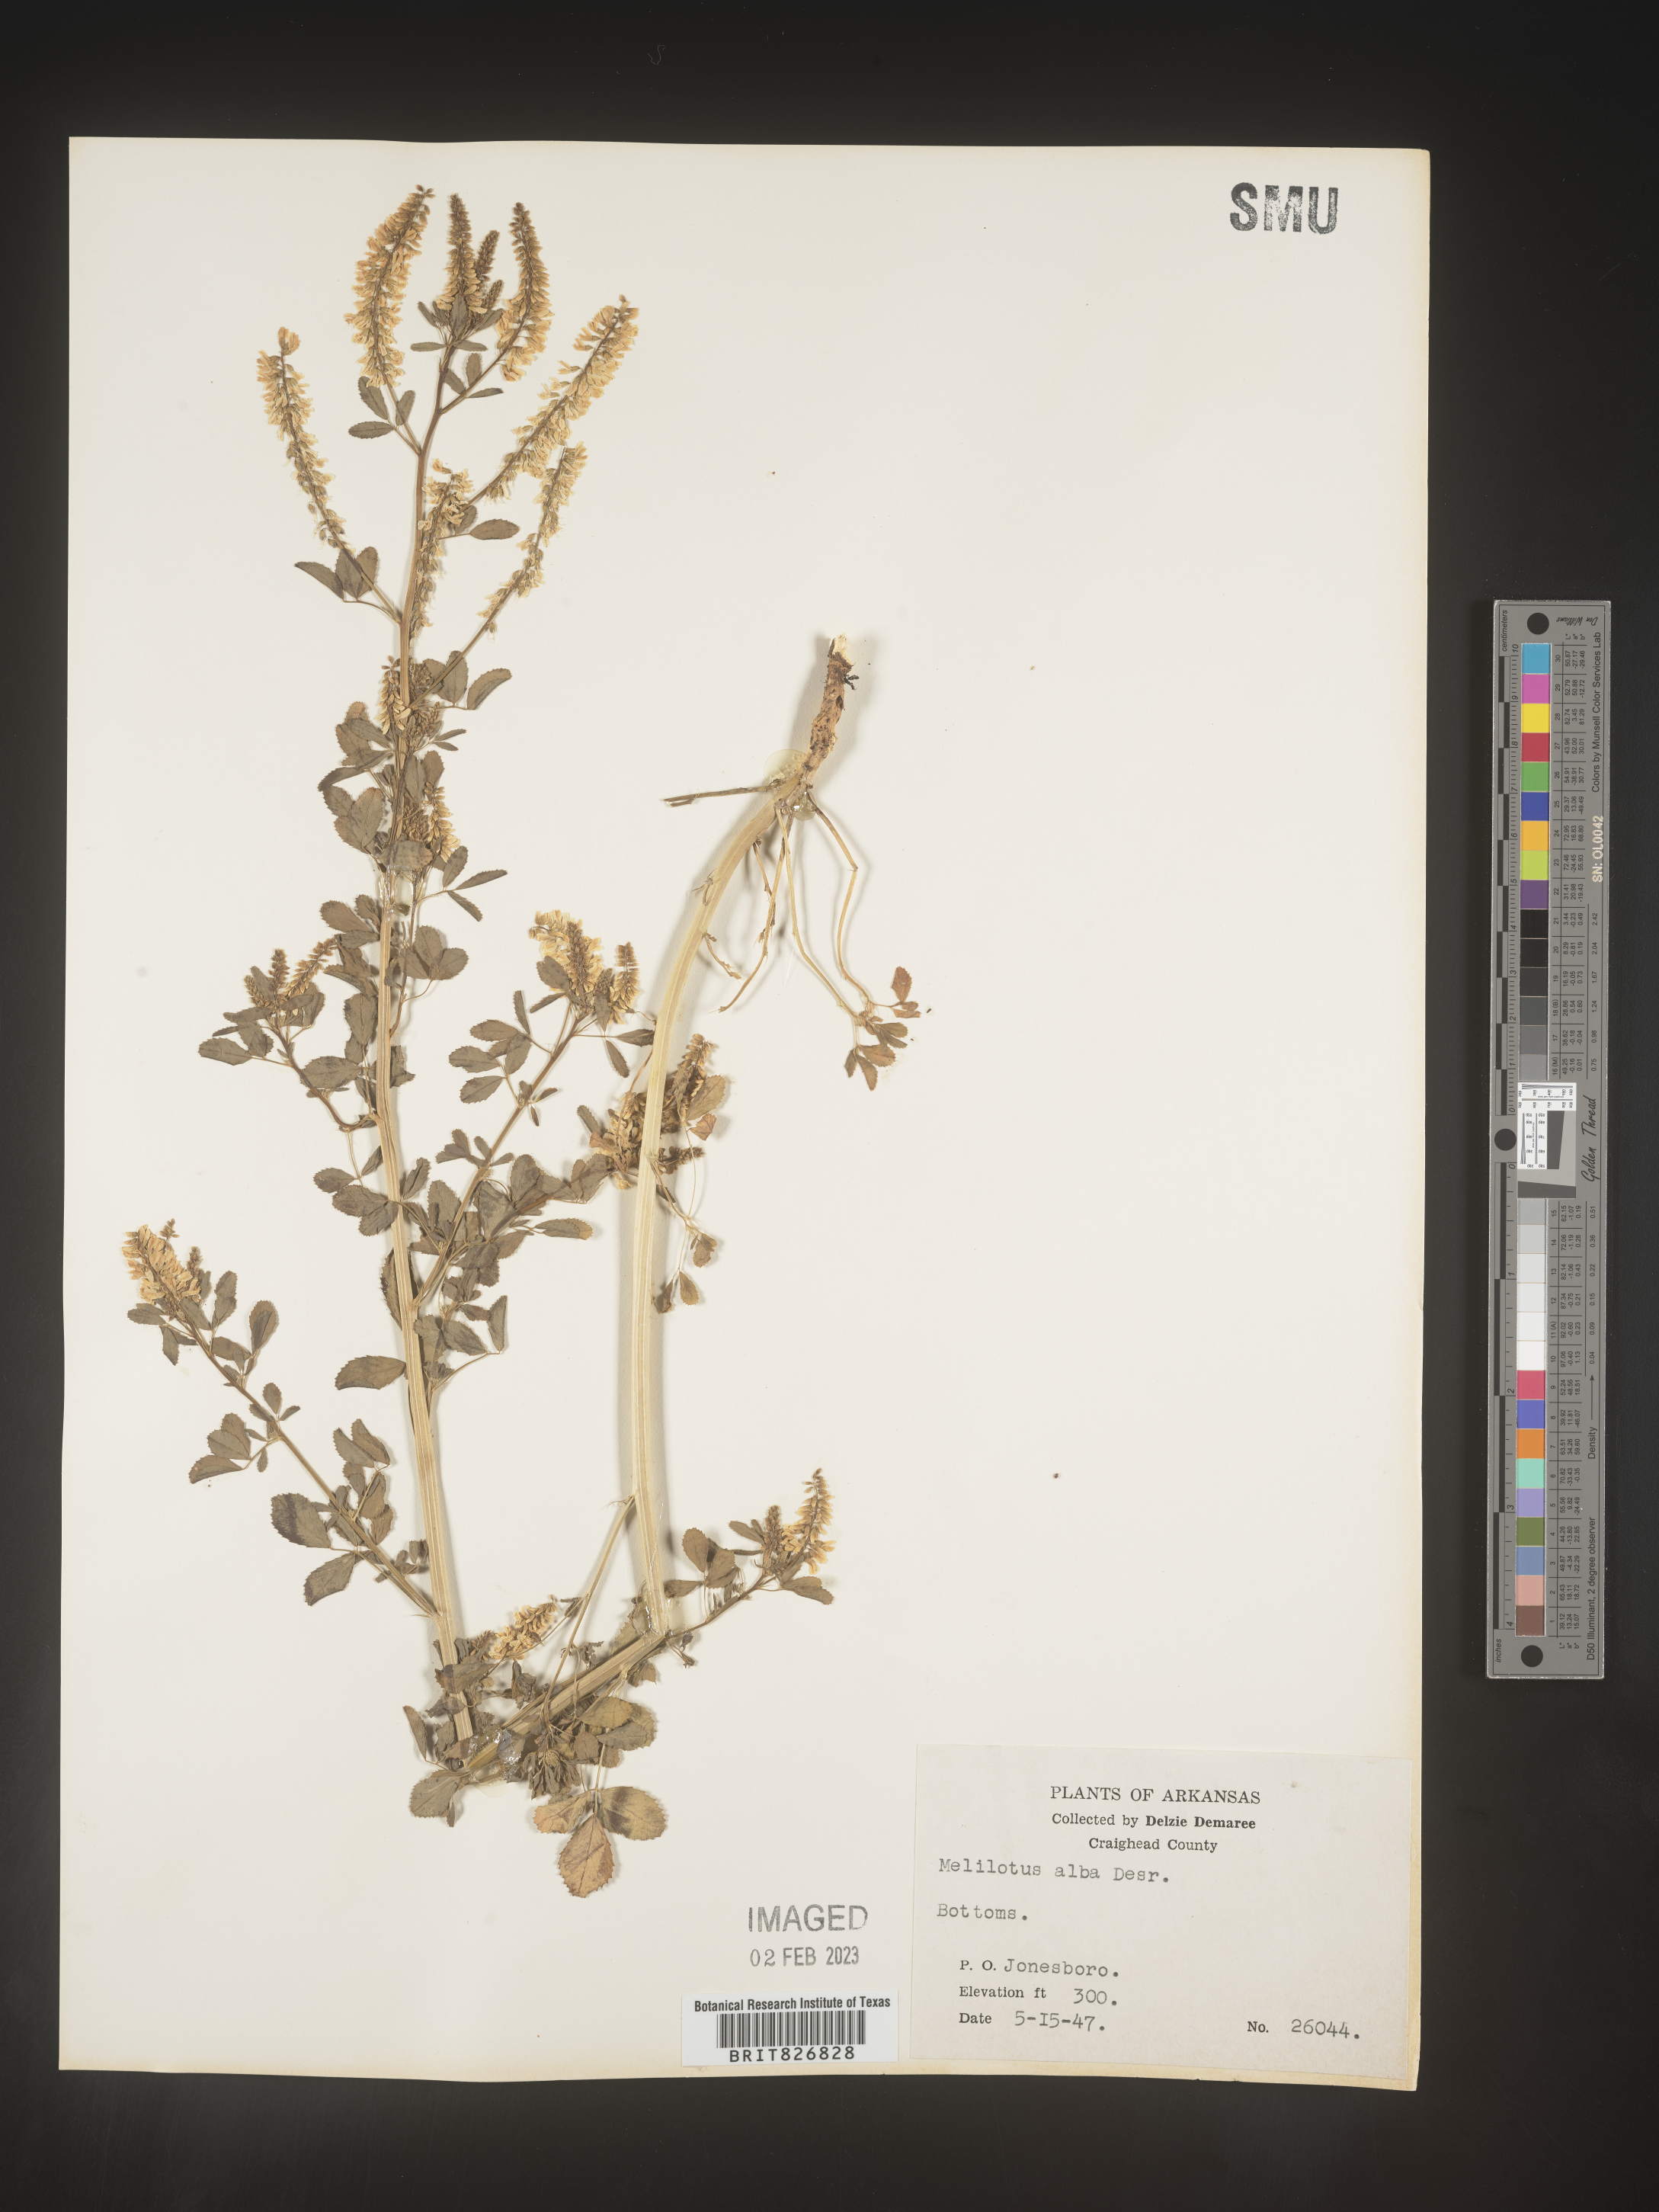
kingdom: Plantae
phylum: Tracheophyta
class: Magnoliopsida
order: Fabales
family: Fabaceae
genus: Melilotus
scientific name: Melilotus albus
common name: White melilot
